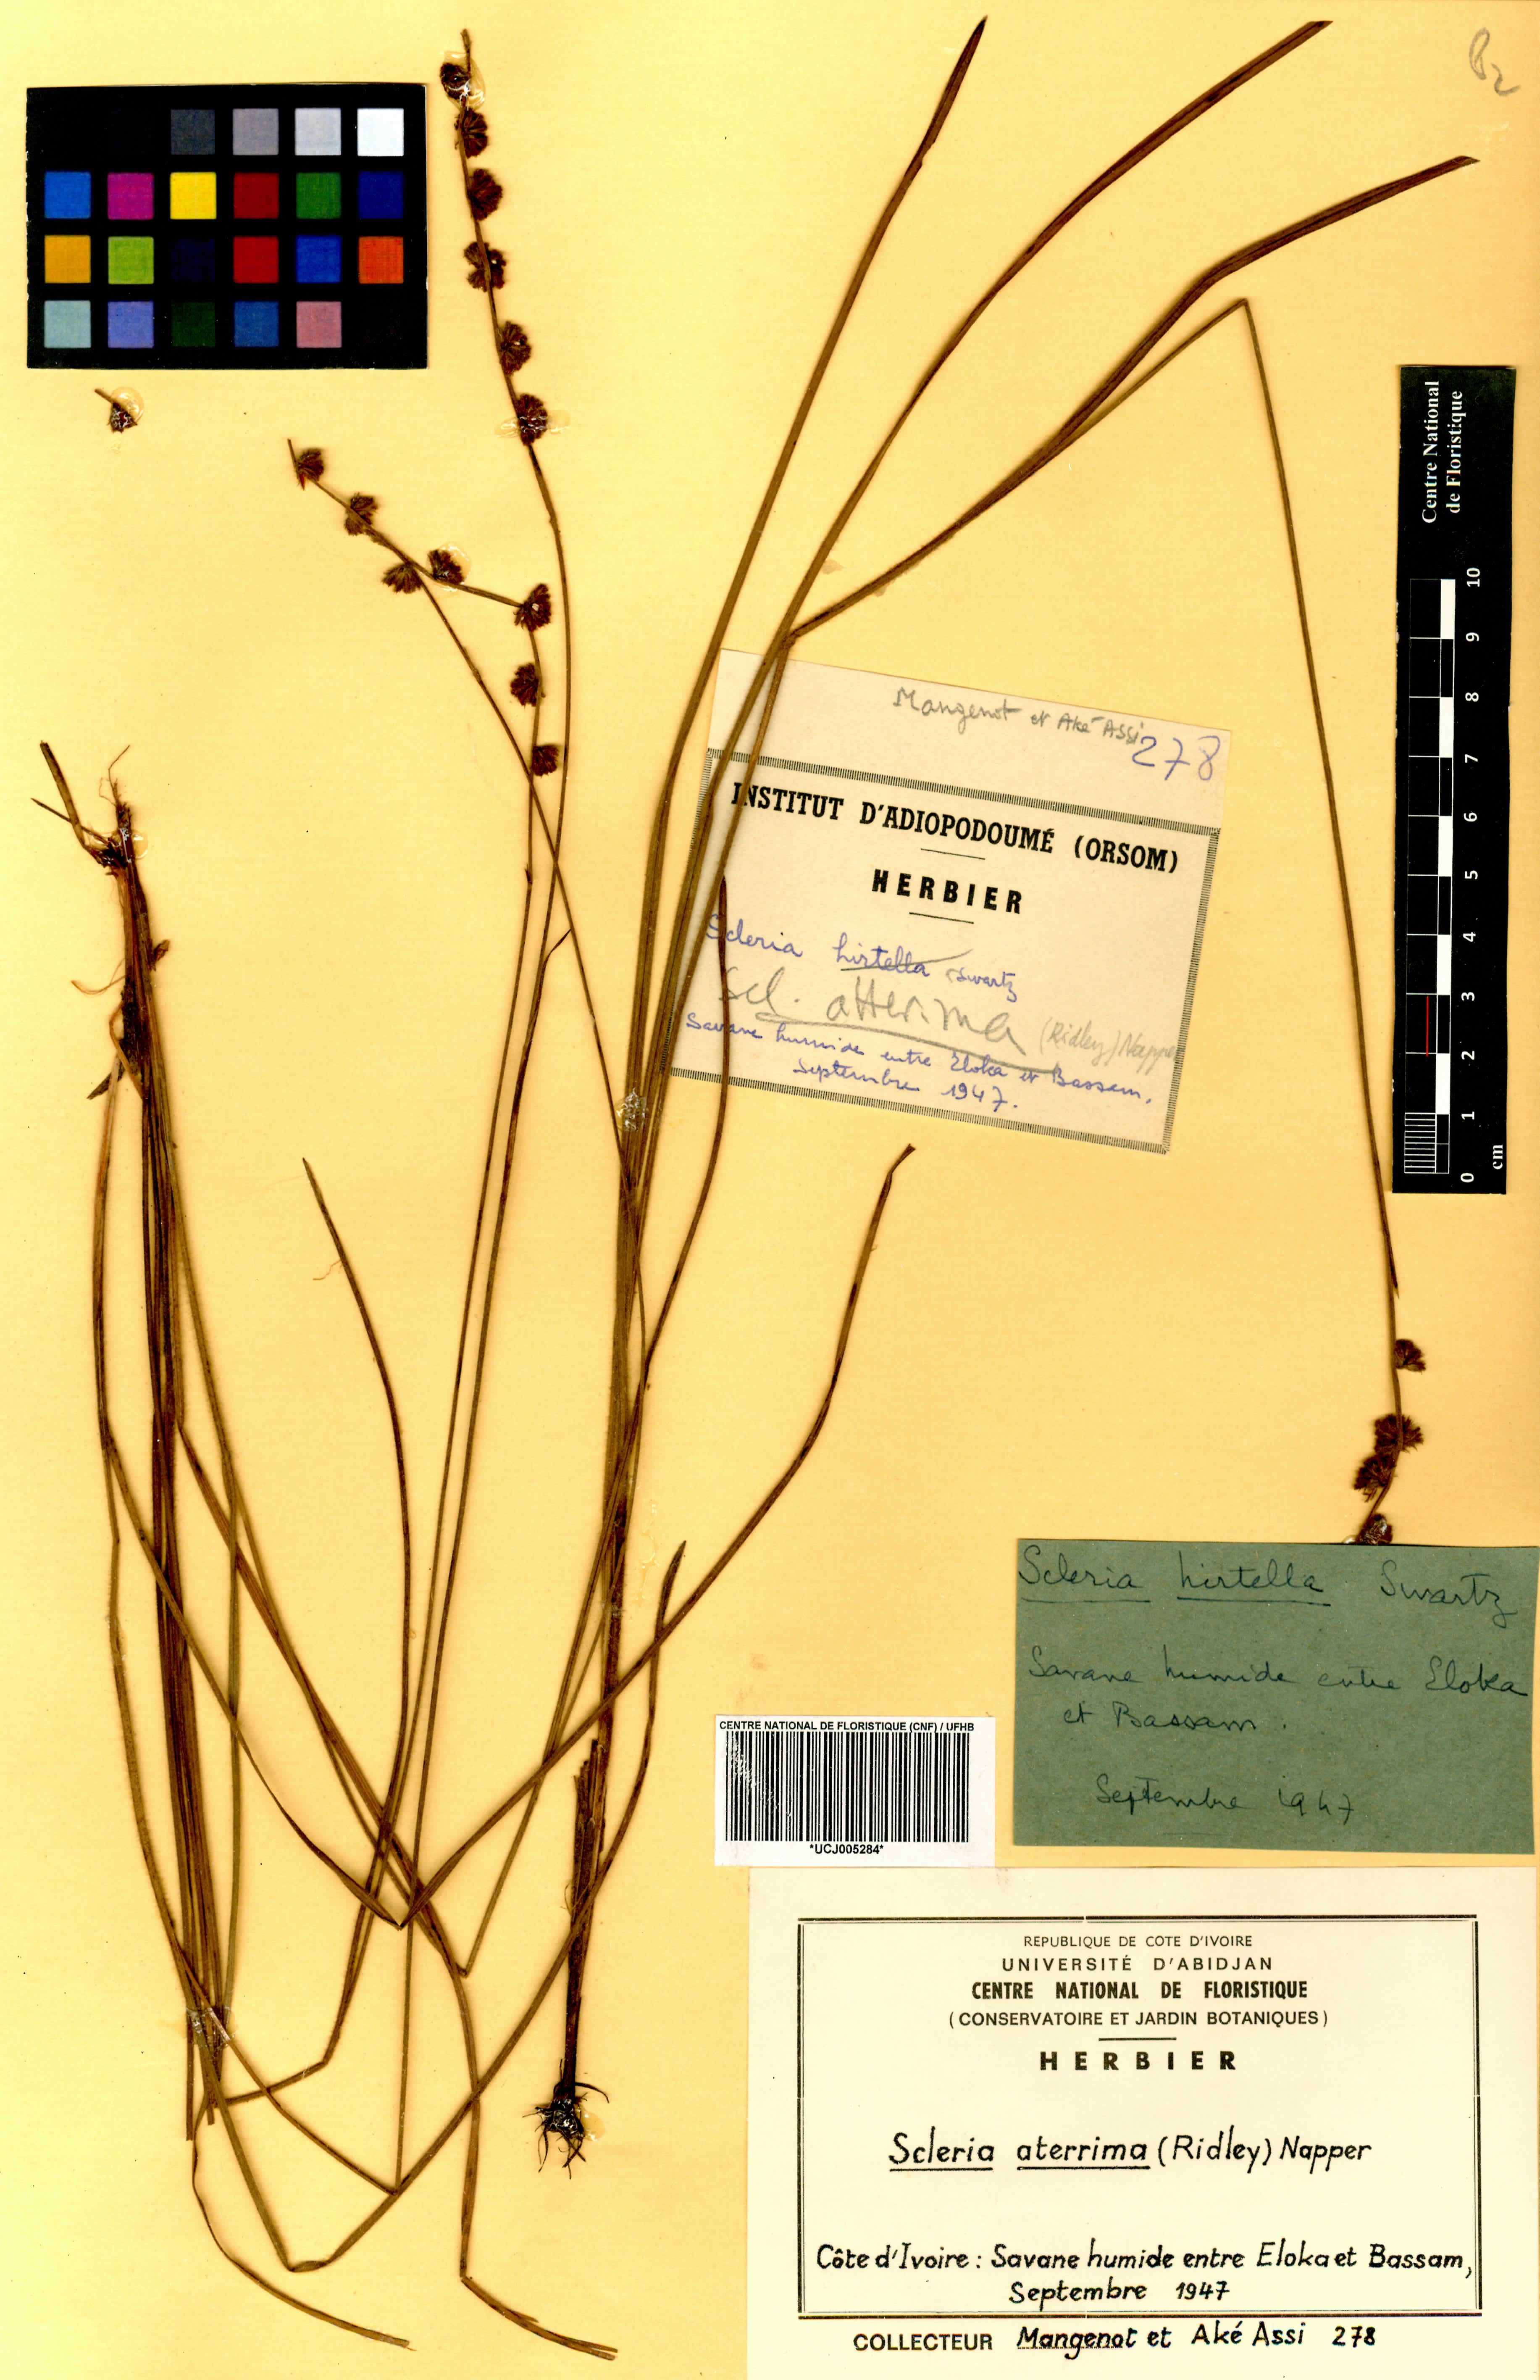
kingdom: Plantae
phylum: Tracheophyta
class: Liliopsida
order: Poales
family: Cyperaceae
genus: Scleria
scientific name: Scleria catophylla
